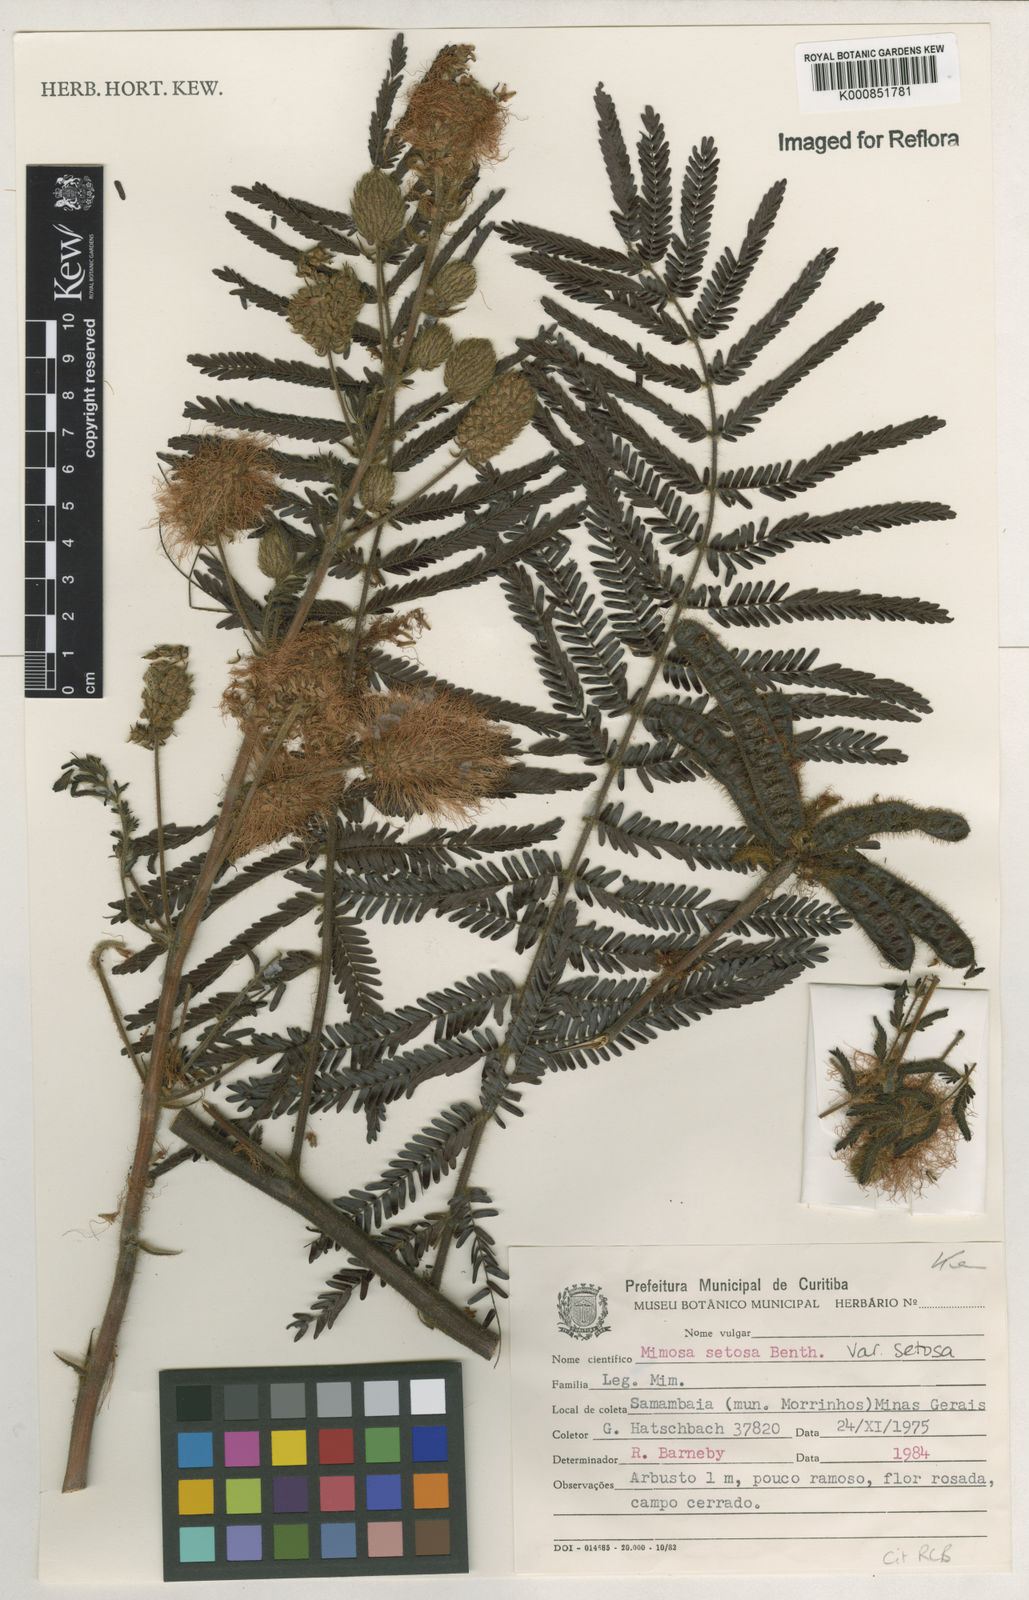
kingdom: Plantae
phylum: Tracheophyta
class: Magnoliopsida
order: Fabales
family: Fabaceae
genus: Mimosa
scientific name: Mimosa setosa
